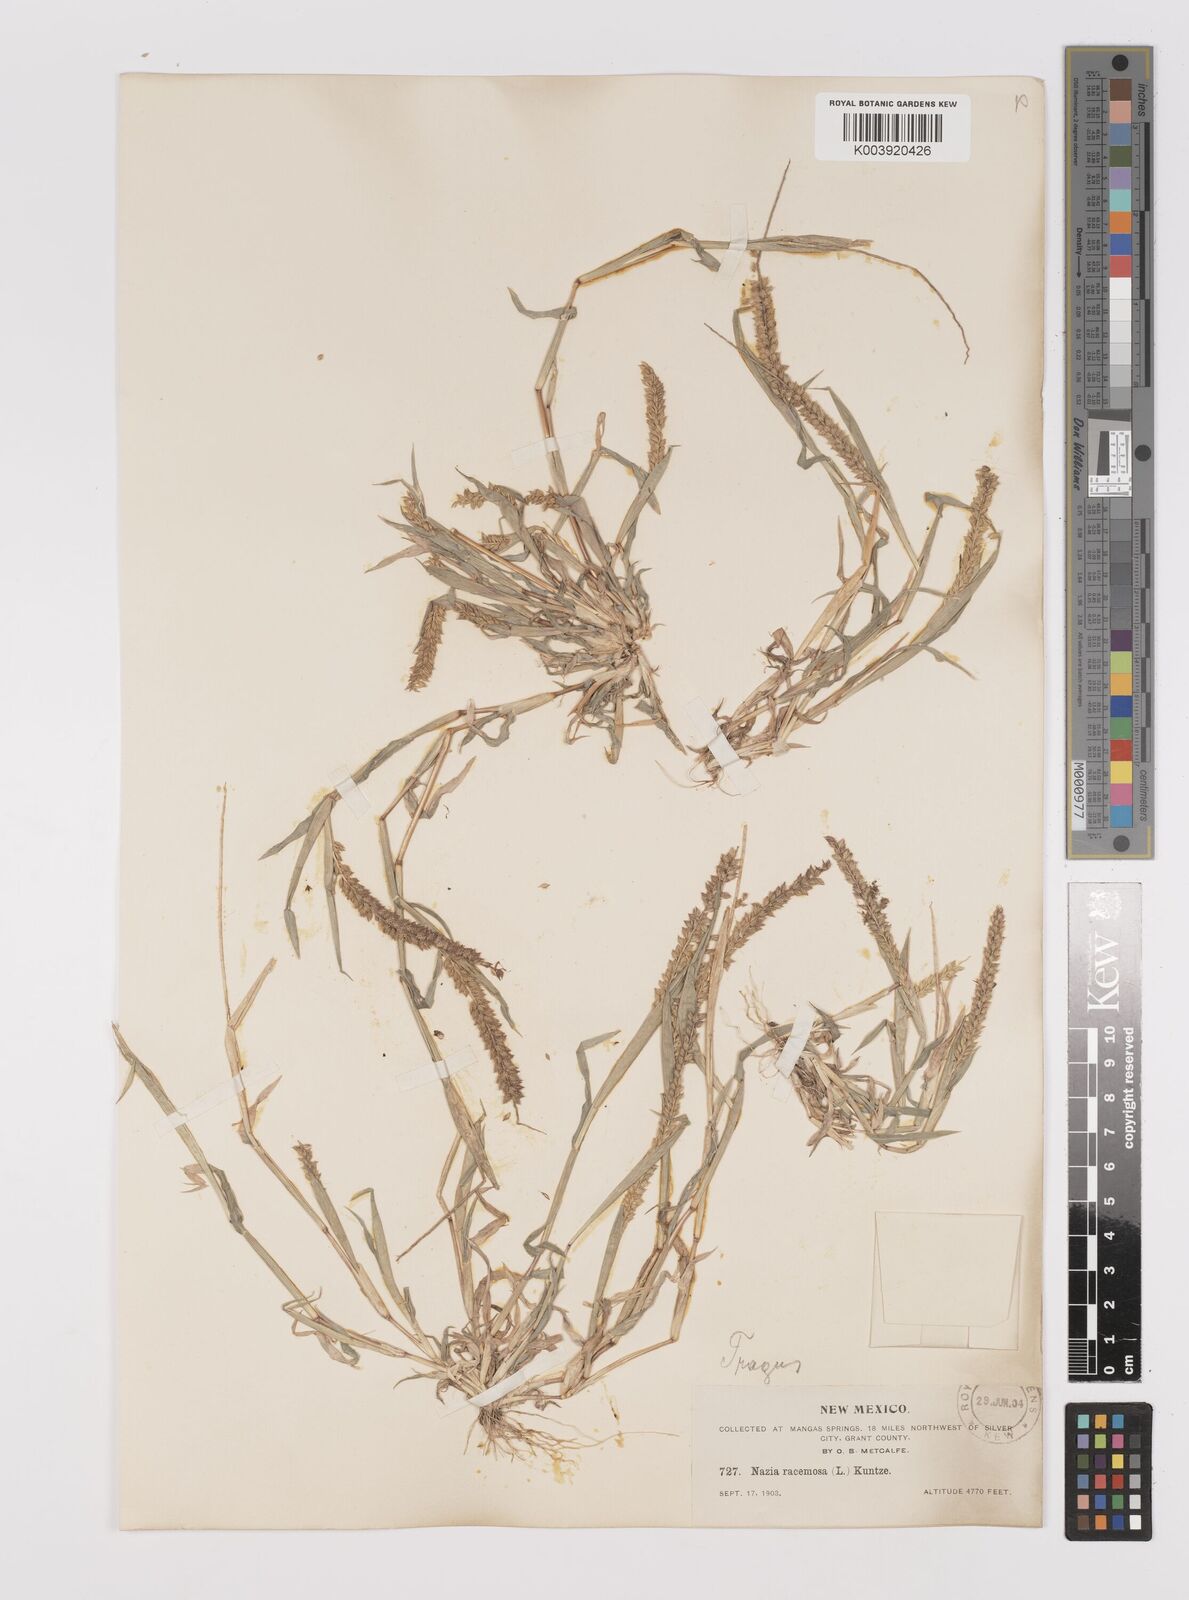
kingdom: Plantae
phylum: Tracheophyta
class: Liliopsida
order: Poales
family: Poaceae
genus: Tragus
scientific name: Tragus berteronianus
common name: African bur-grass
